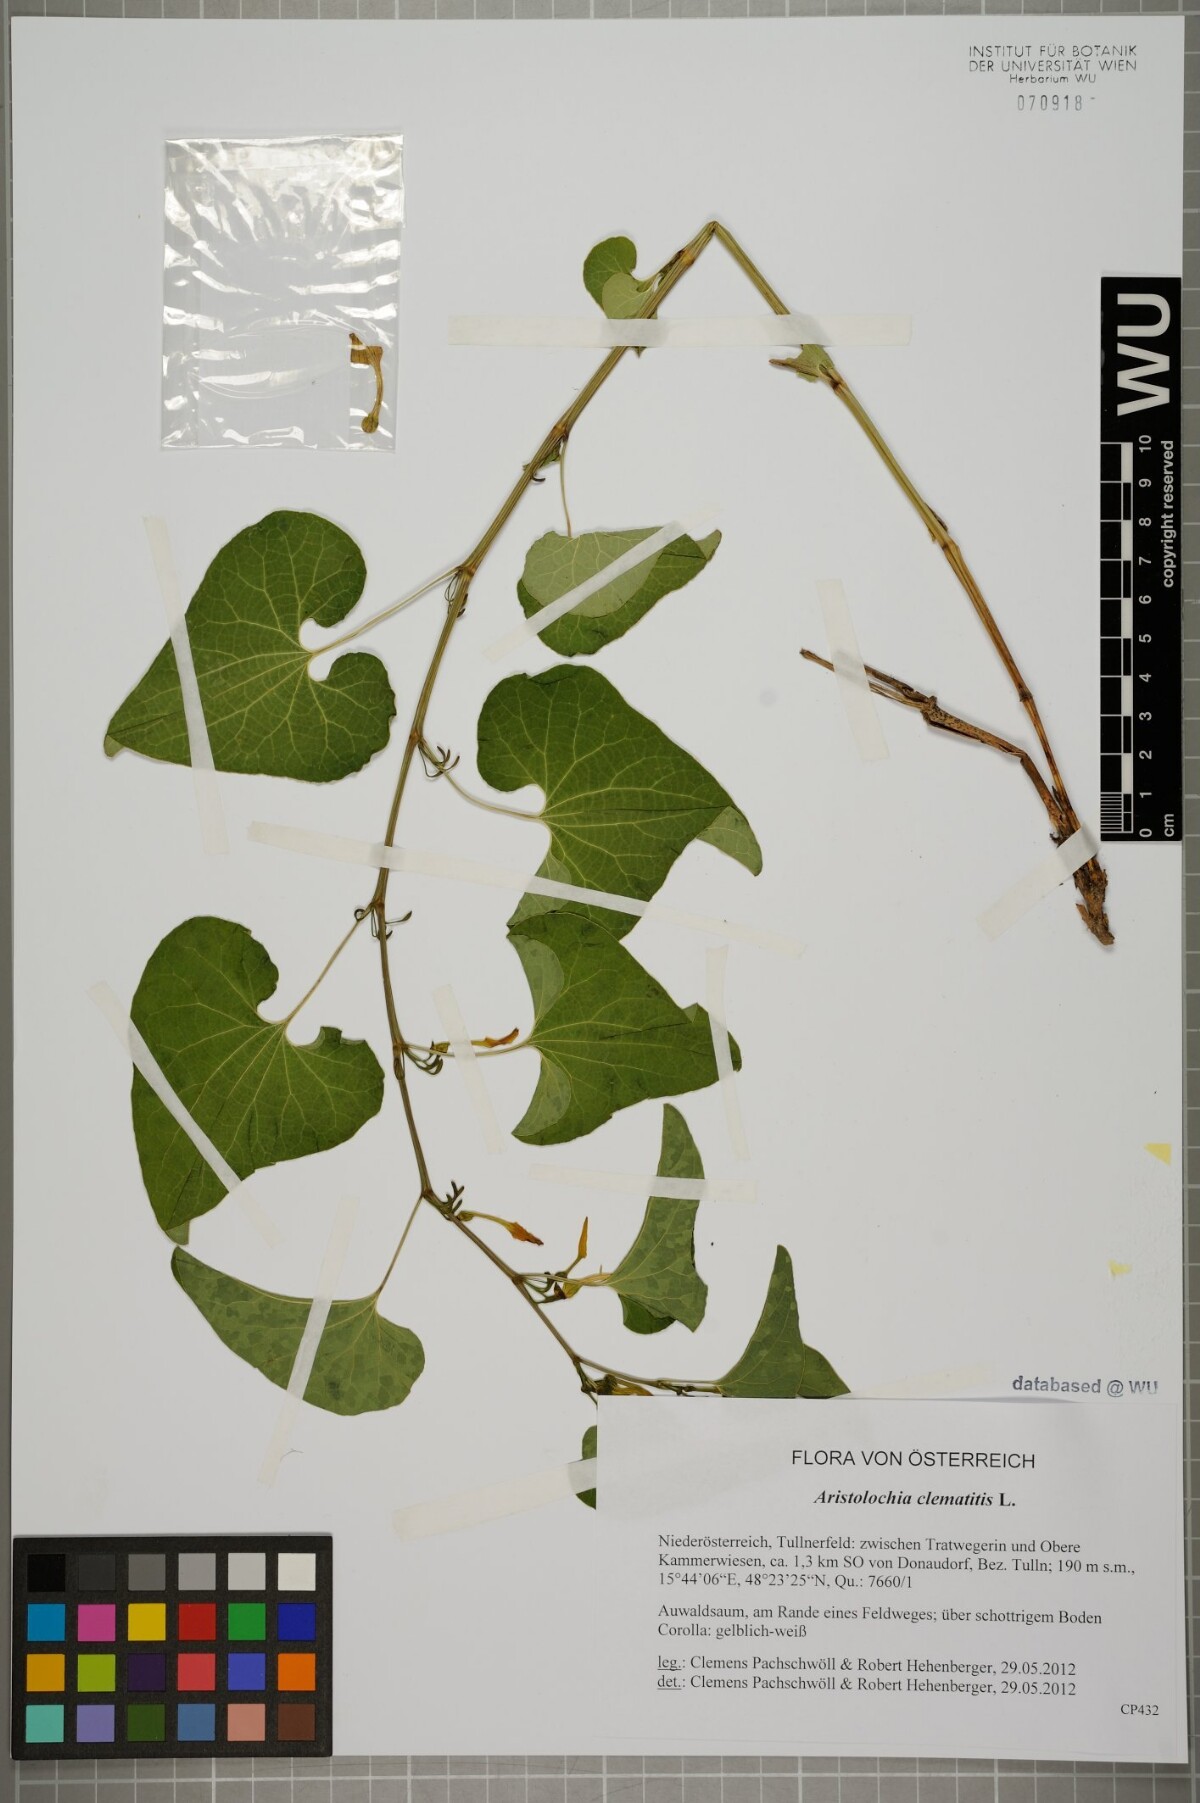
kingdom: Plantae
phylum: Tracheophyta
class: Magnoliopsida
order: Piperales
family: Aristolochiaceae
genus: Aristolochia
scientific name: Aristolochia clematitis
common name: Birthwort
